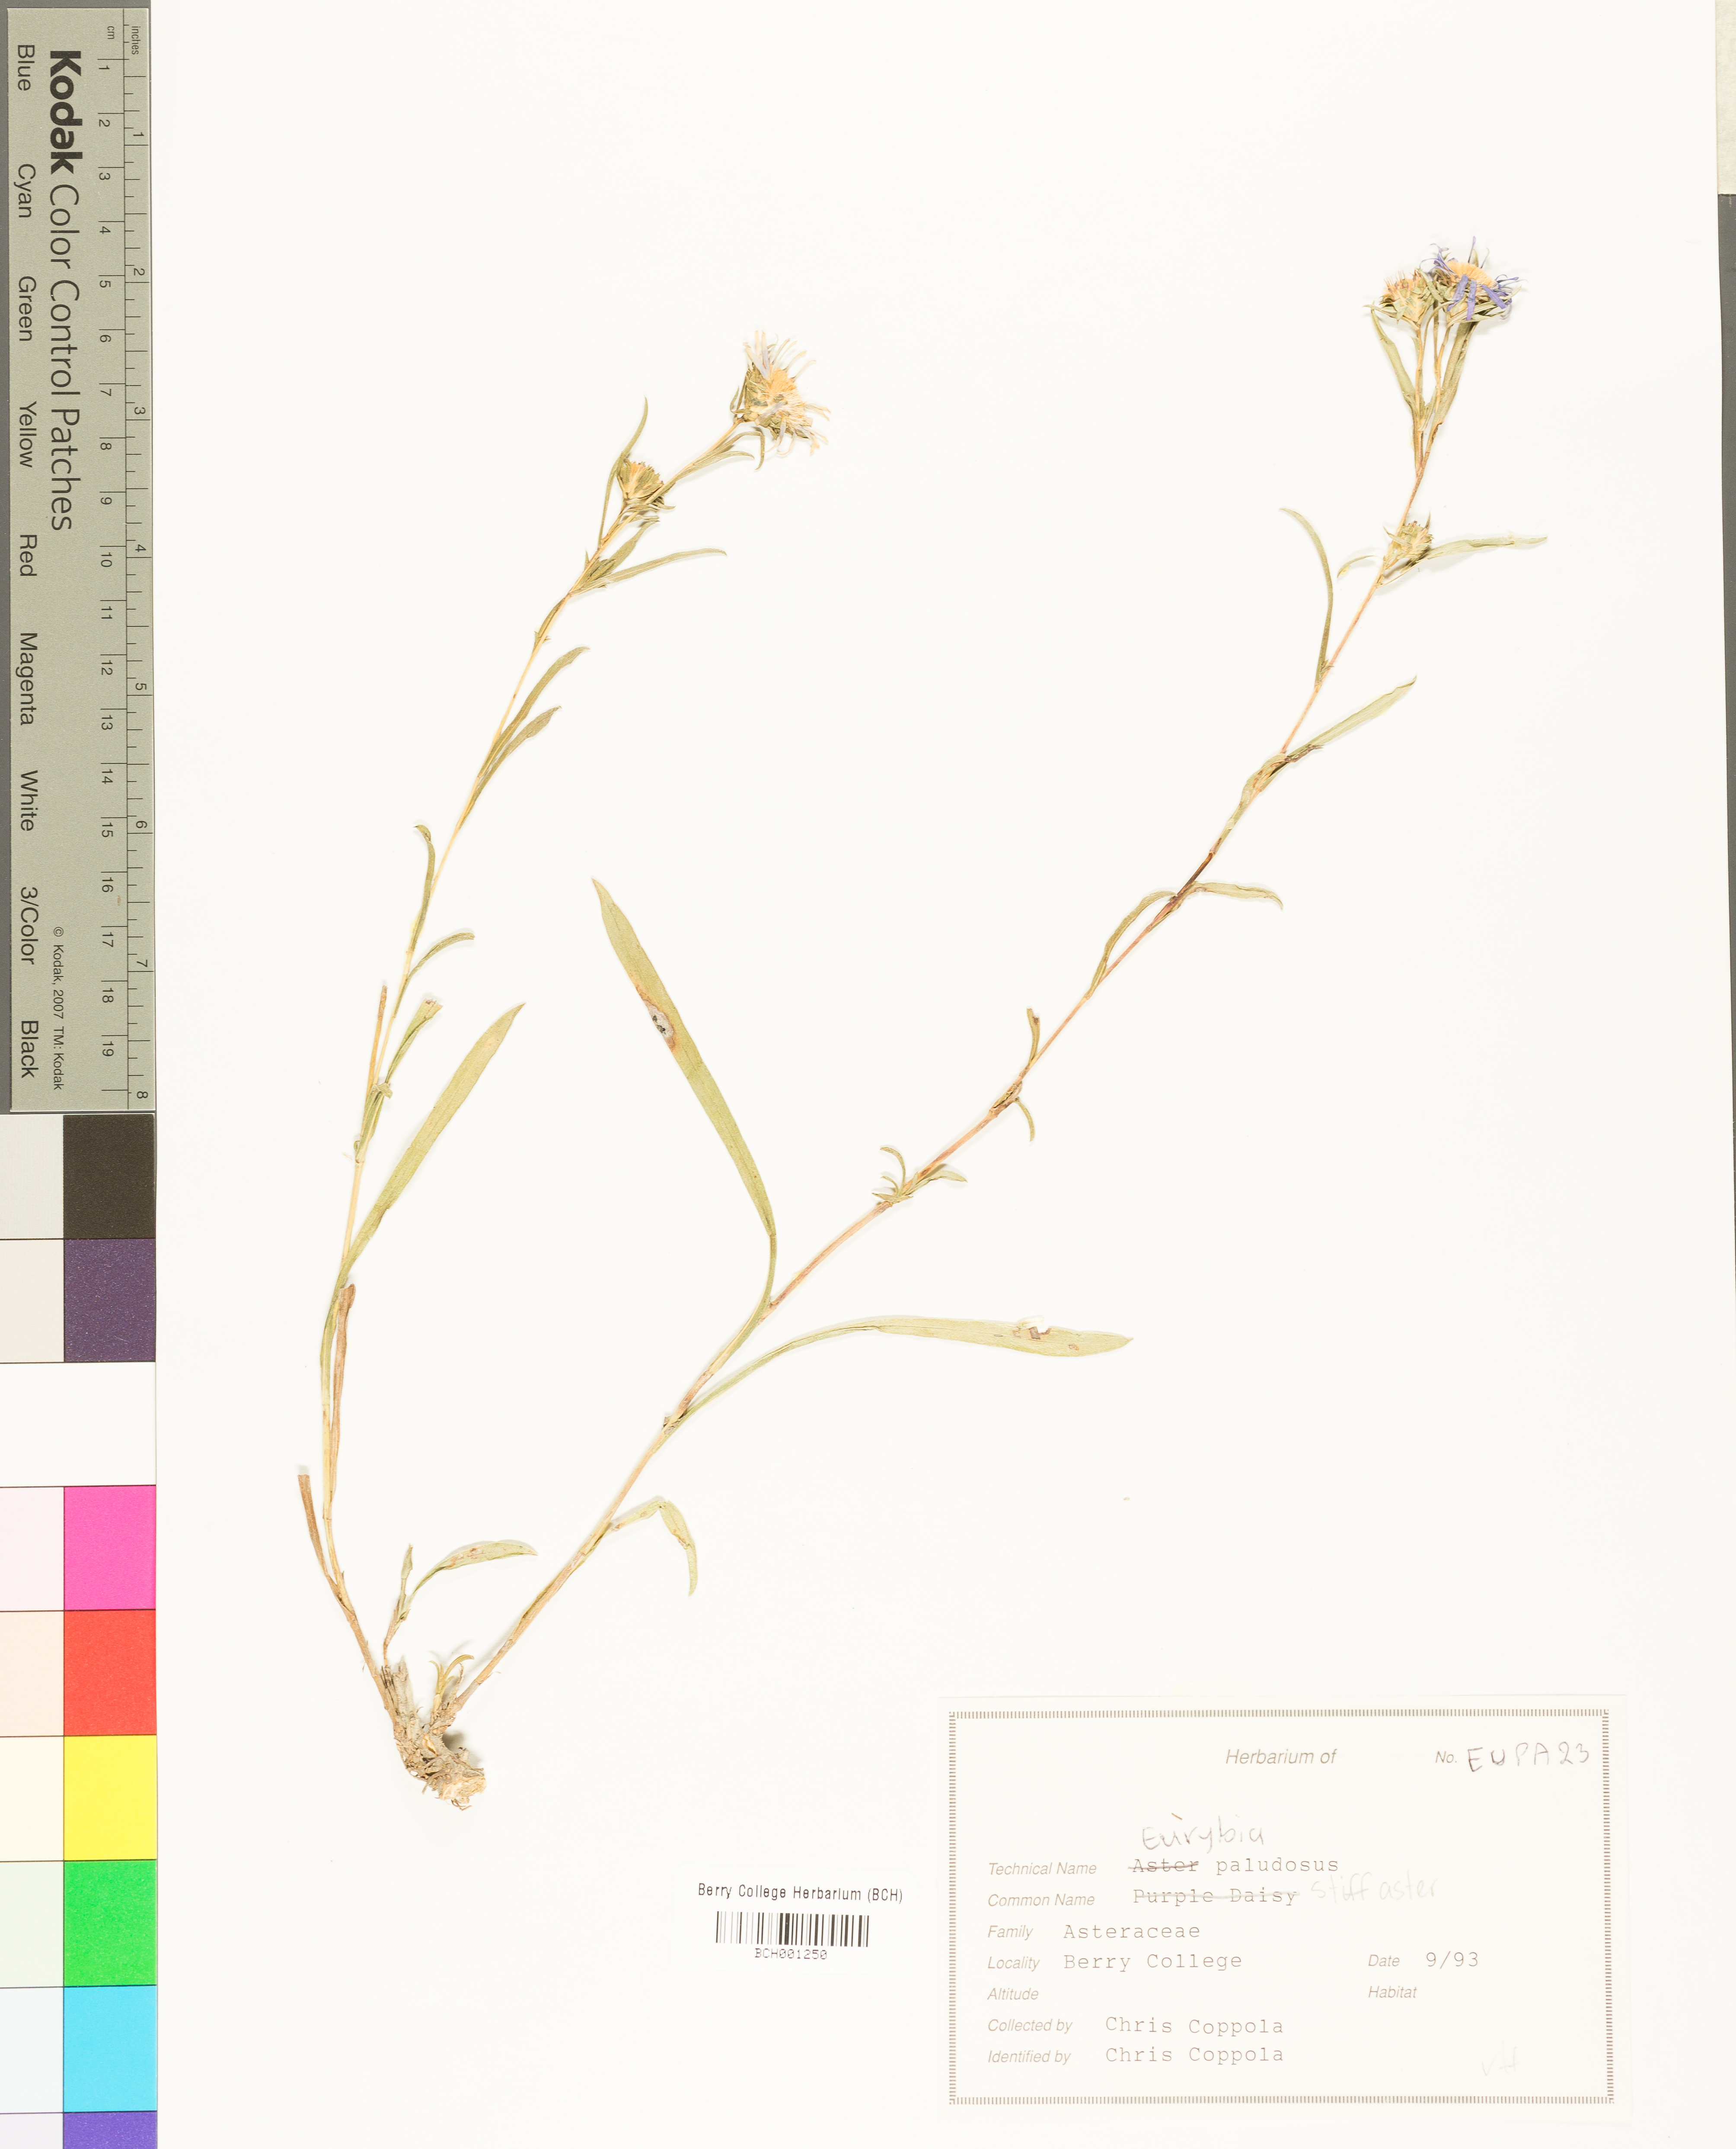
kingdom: Plantae
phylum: Tracheophyta
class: Magnoliopsida
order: Asterales
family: Asteraceae
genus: Eurybia
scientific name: Eurybia paludosa
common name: Southern swamp aster
